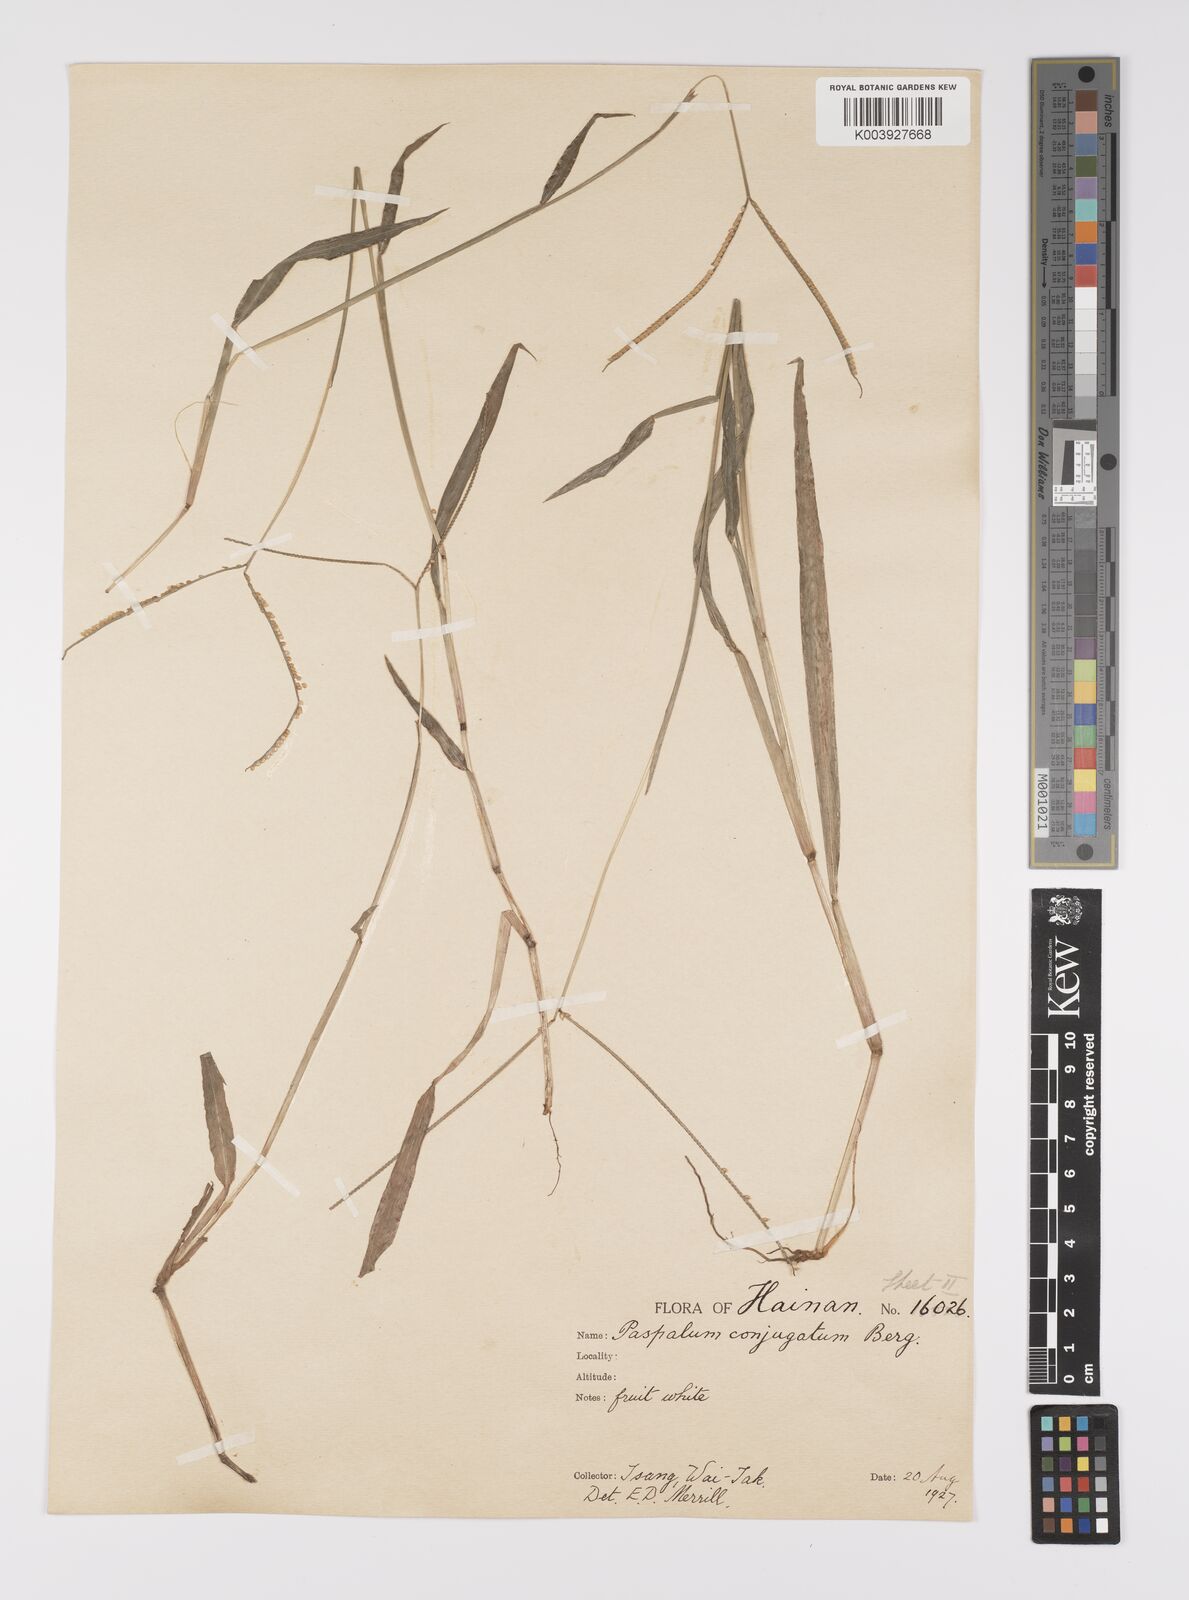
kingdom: Plantae
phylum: Tracheophyta
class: Liliopsida
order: Poales
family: Poaceae
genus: Paspalum
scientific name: Paspalum conjugatum
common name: Hilograss
